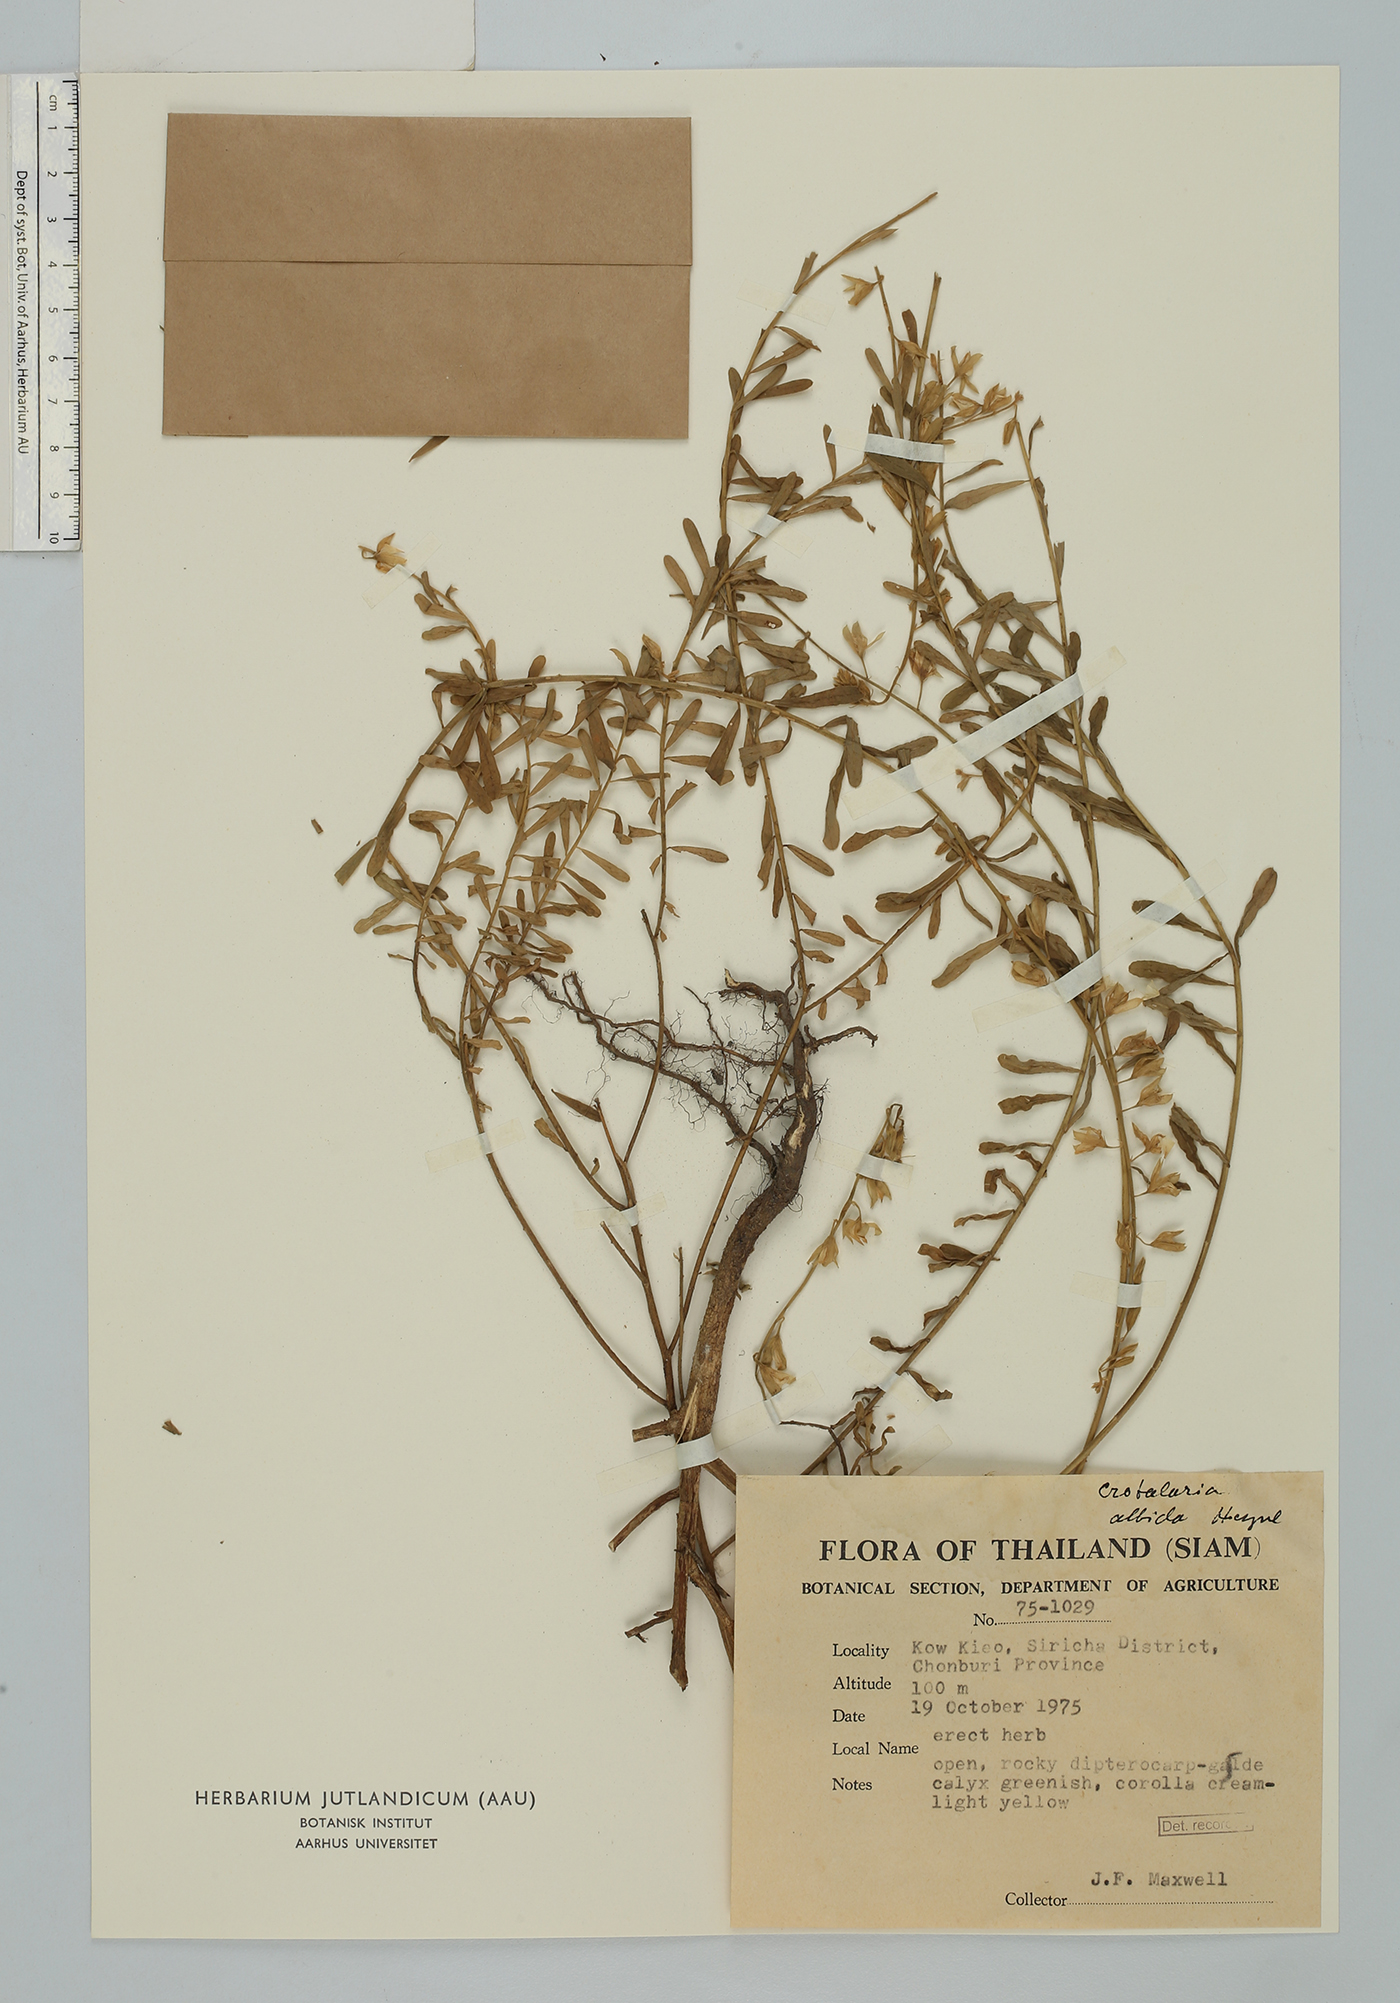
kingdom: Plantae
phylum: Tracheophyta
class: Magnoliopsida
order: Fabales
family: Fabaceae
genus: Crotalaria
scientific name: Crotalaria albida
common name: Taiwan crotalaria
